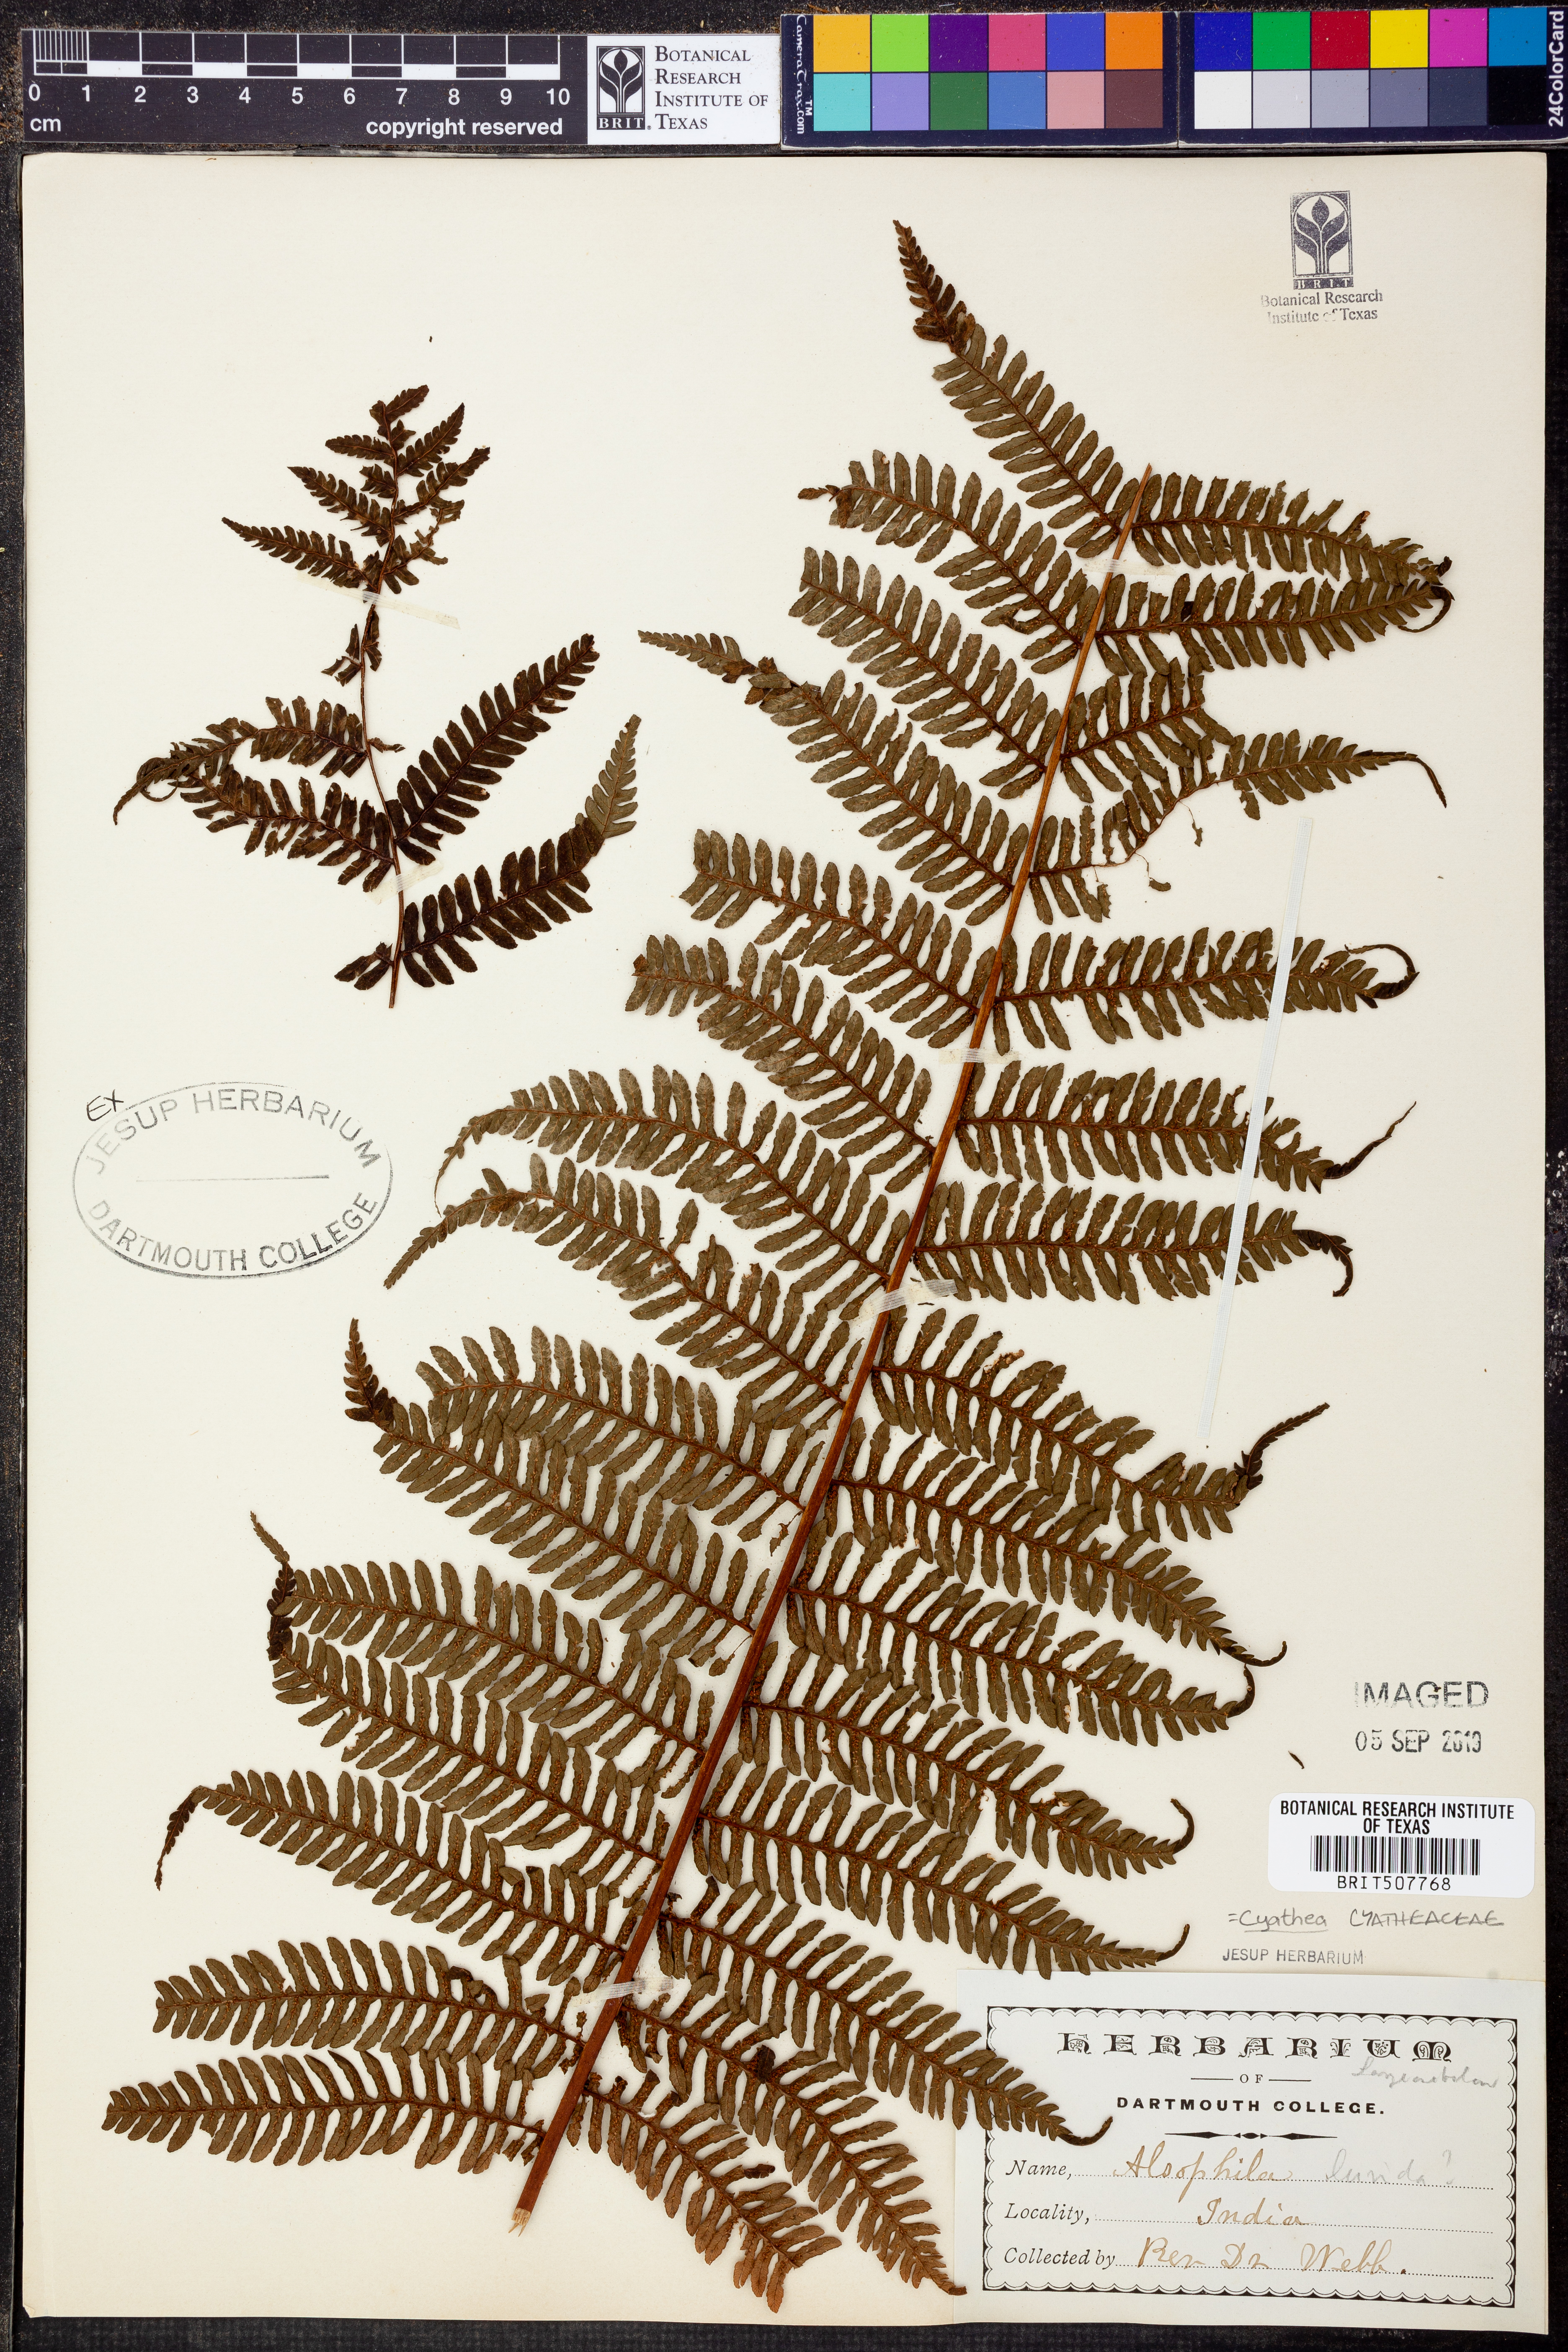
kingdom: Plantae
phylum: Tracheophyta
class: Polypodiopsida
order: Cyatheales
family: Cyatheaceae
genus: Gymnosphaera
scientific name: Gymnosphaera lurida
